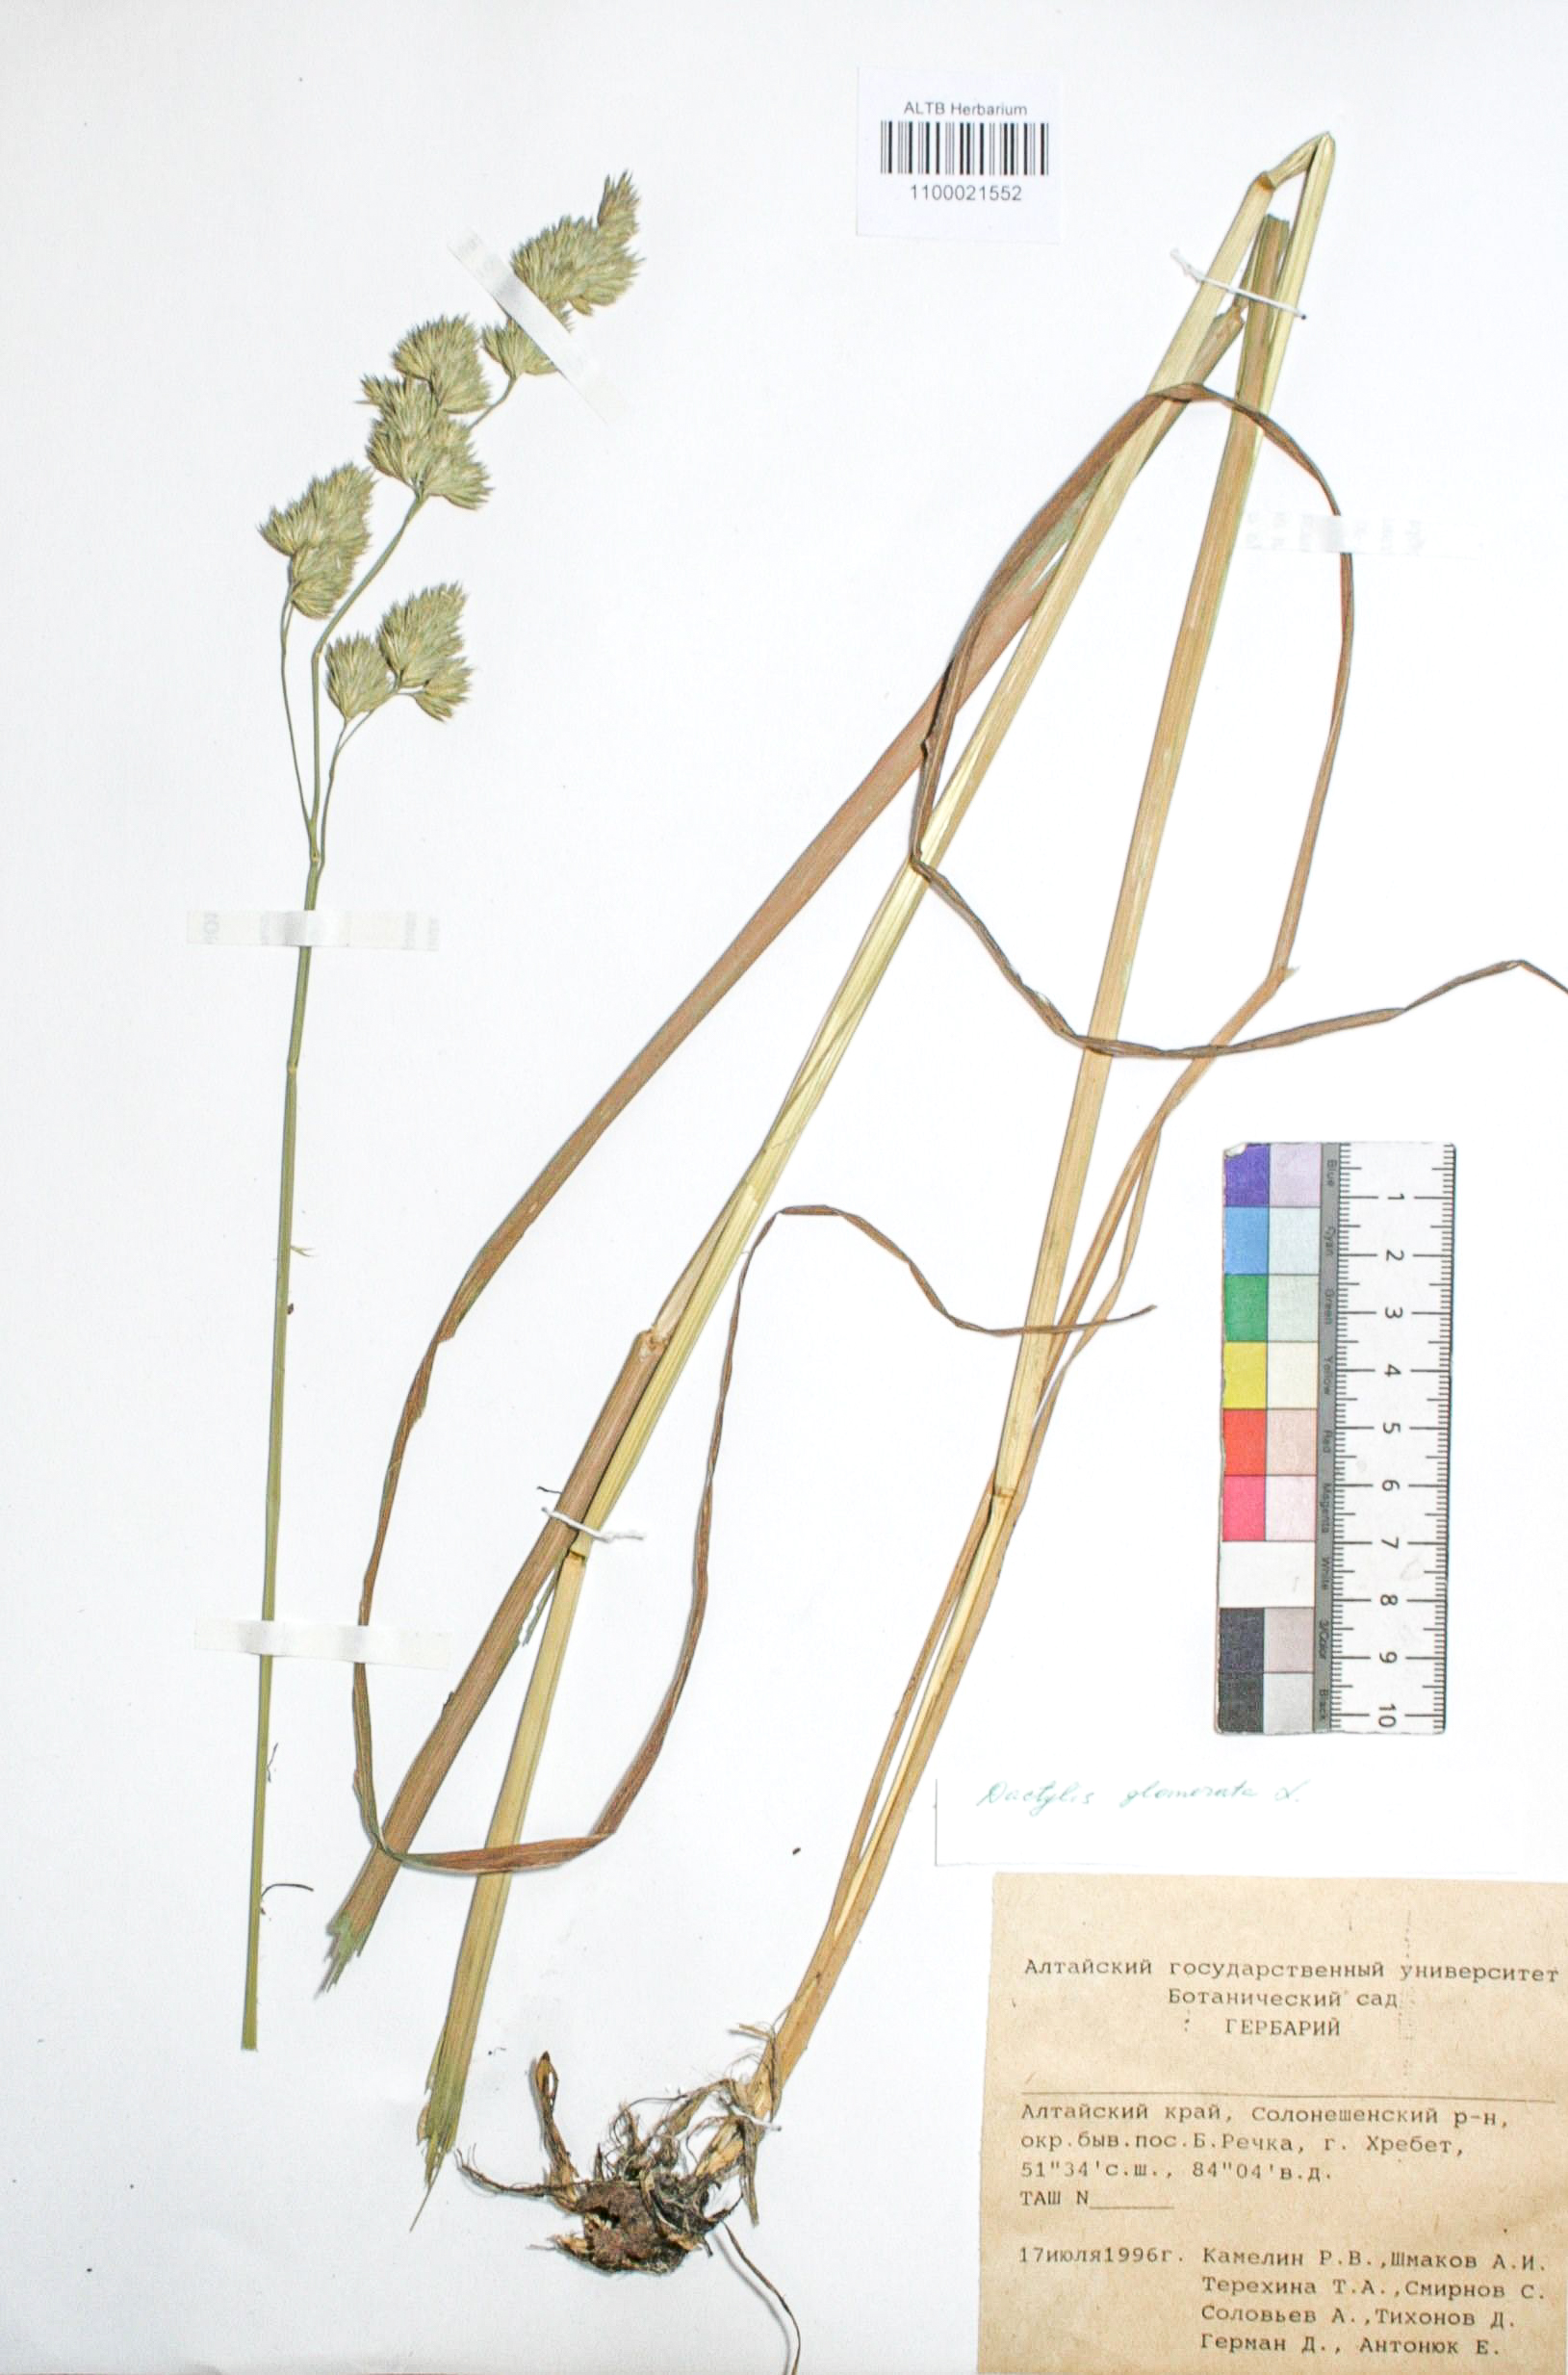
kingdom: Plantae
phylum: Tracheophyta
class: Liliopsida
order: Poales
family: Poaceae
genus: Dactylis
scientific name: Dactylis glomerata
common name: Orchardgrass
